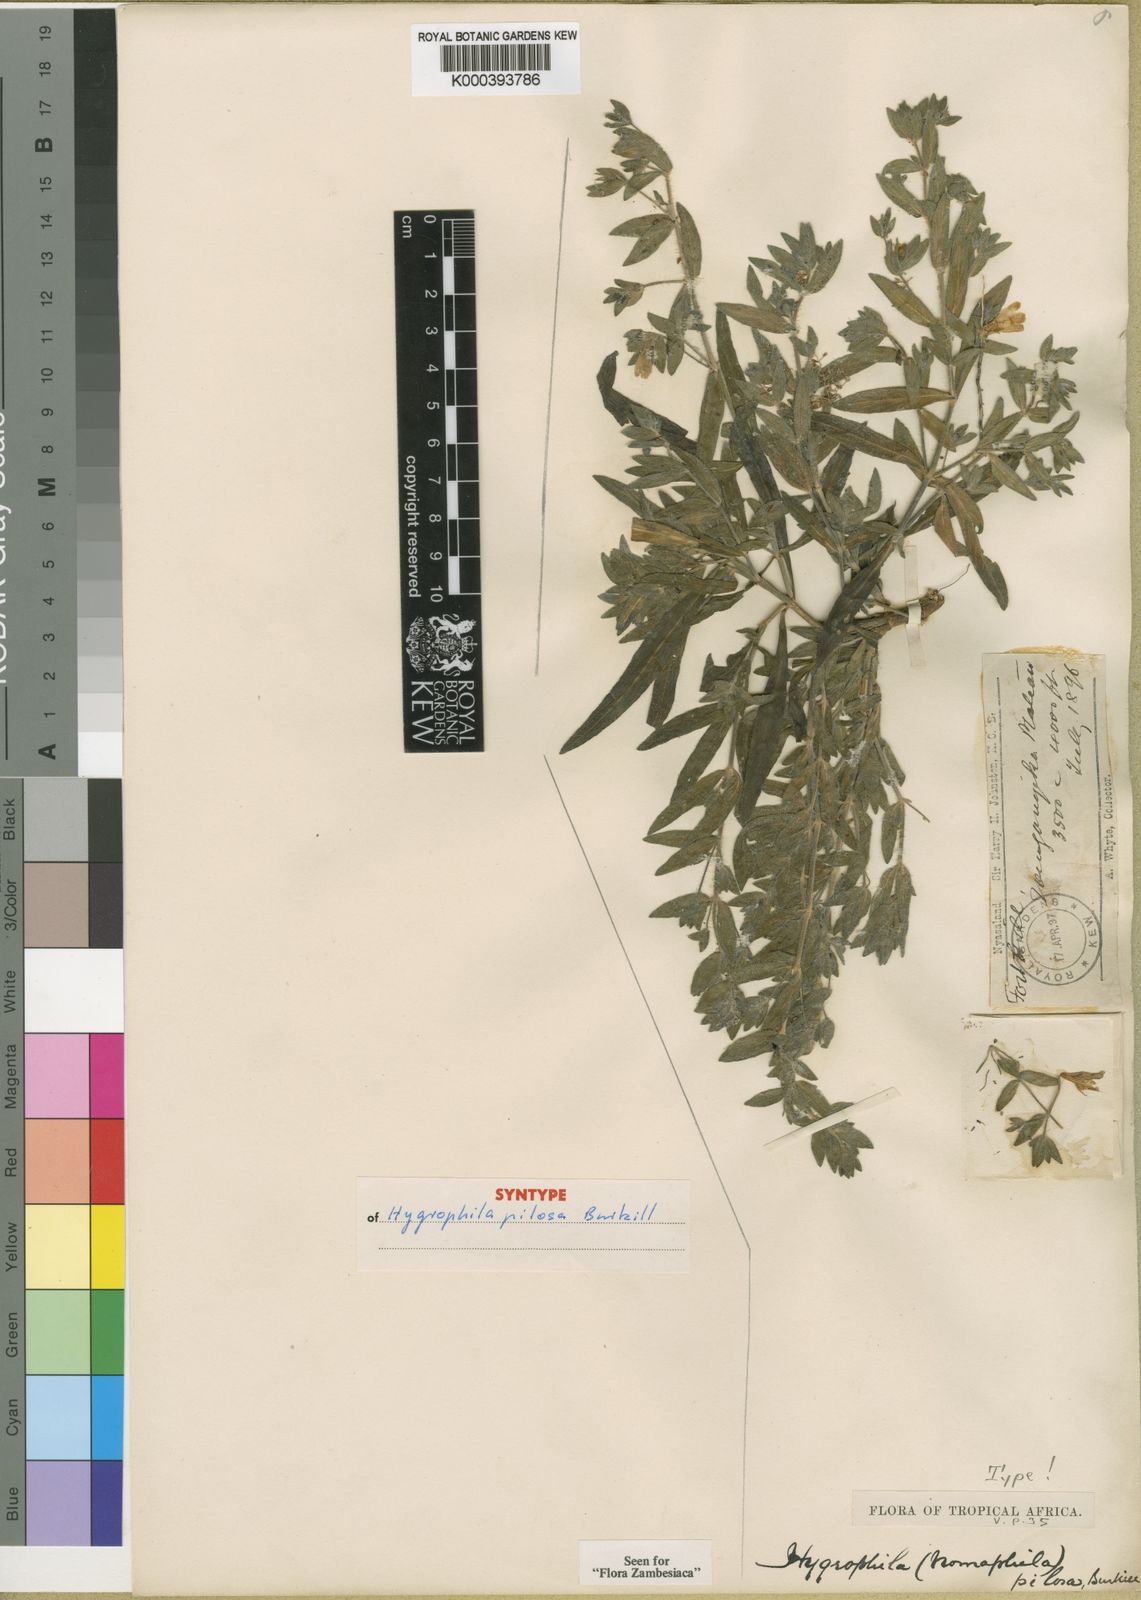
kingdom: Plantae
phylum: Tracheophyta
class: Magnoliopsida
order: Lamiales
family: Acanthaceae
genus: Hygrophila
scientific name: Hygrophila acinos
